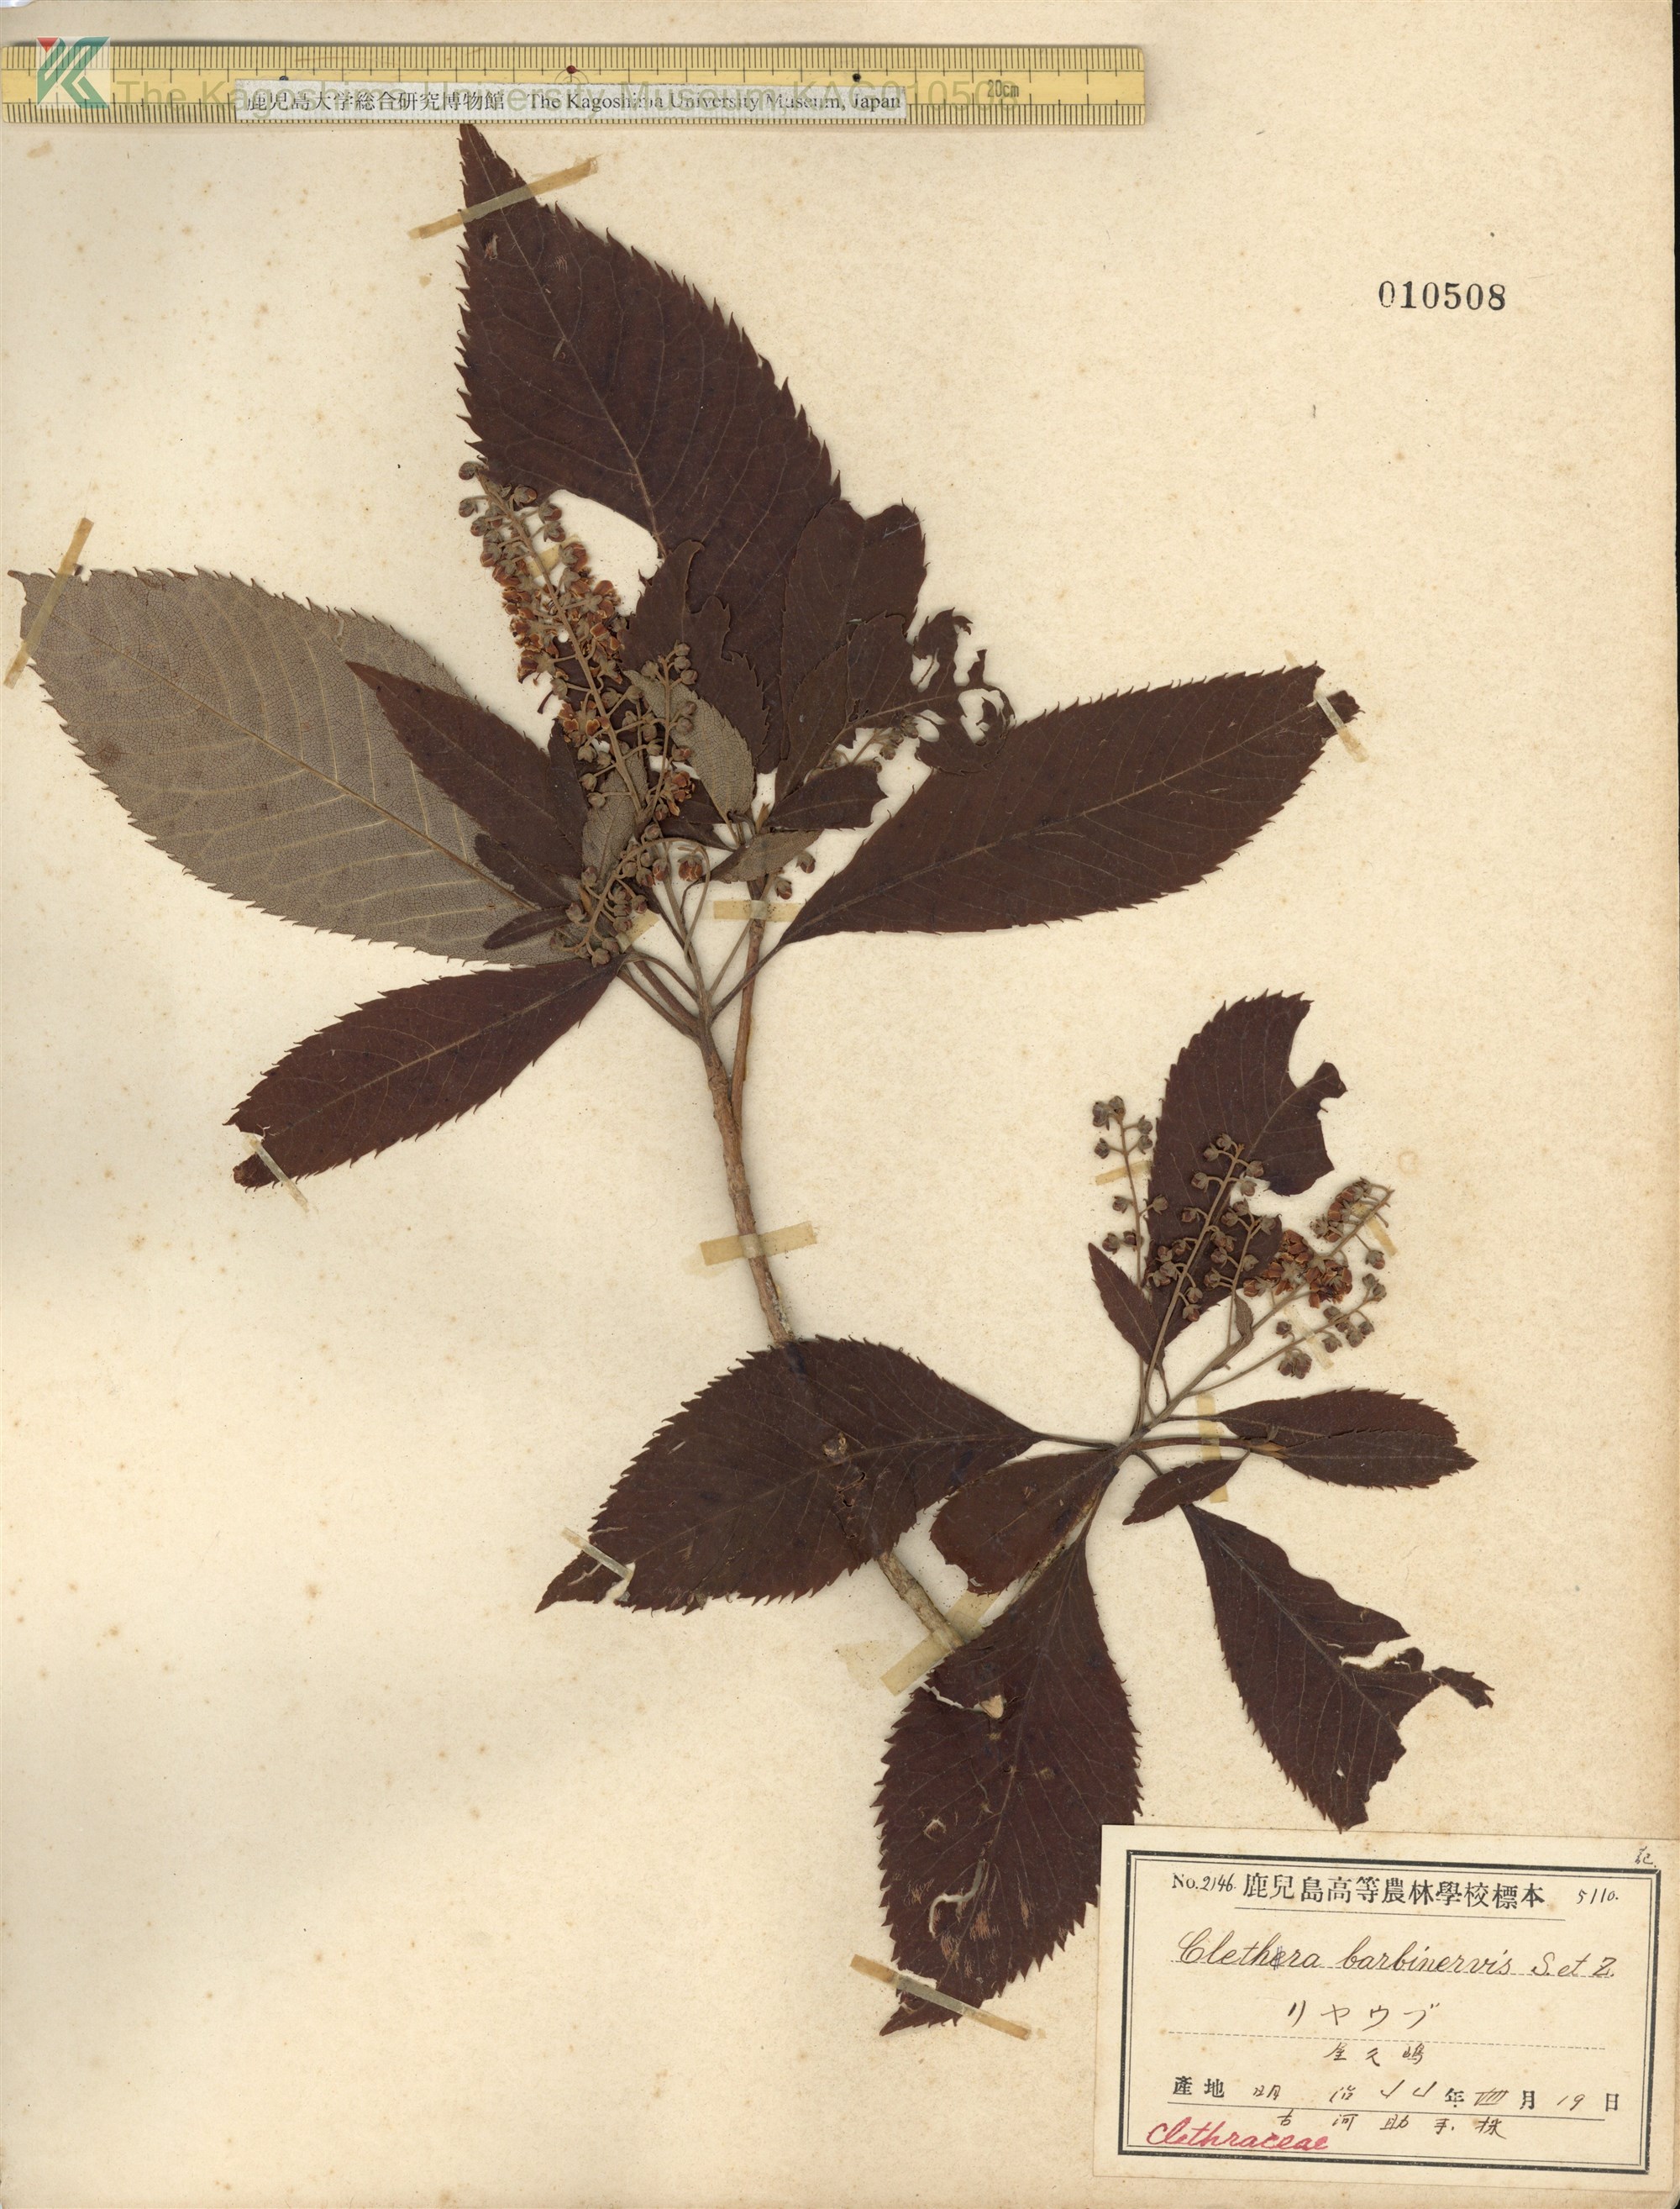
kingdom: Plantae
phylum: Tracheophyta
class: Magnoliopsida
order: Ericales
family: Clethraceae
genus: Clethra
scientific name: Clethra barbinervis
